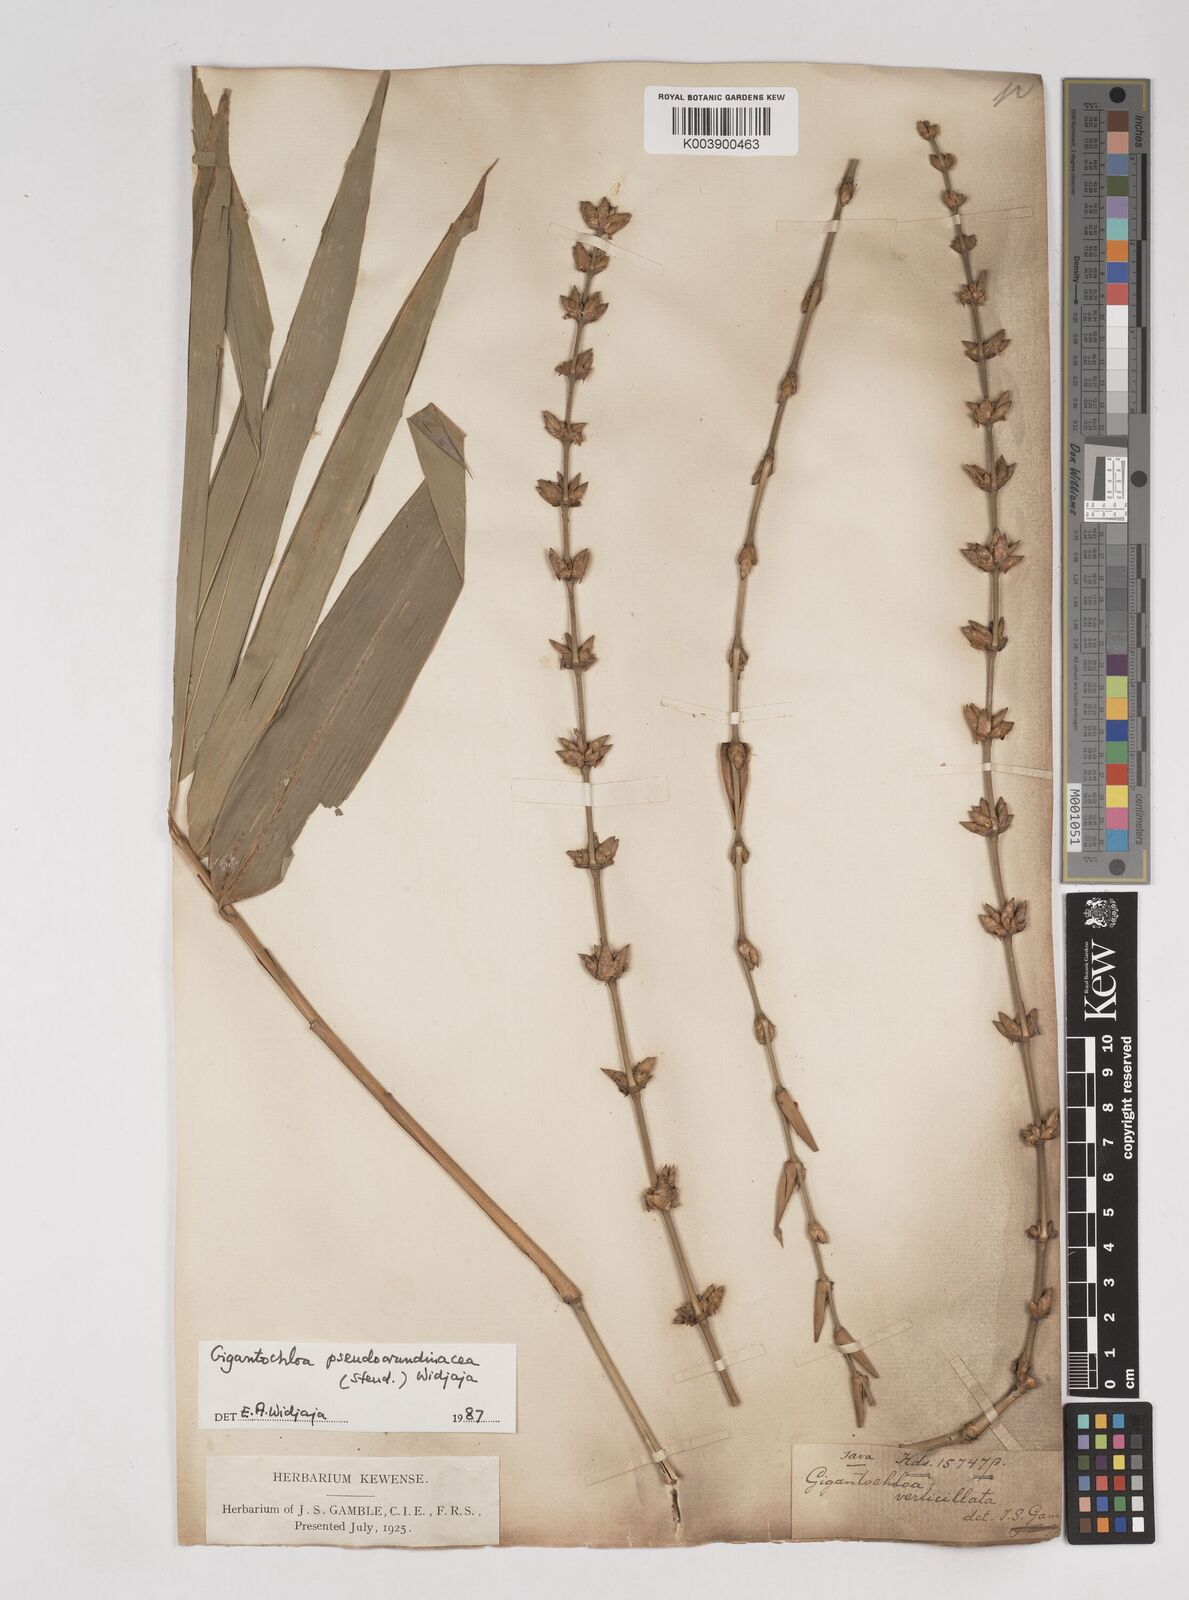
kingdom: Plantae
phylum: Tracheophyta
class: Liliopsida
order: Poales
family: Poaceae
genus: Gigantochloa
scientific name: Gigantochloa verticillata
